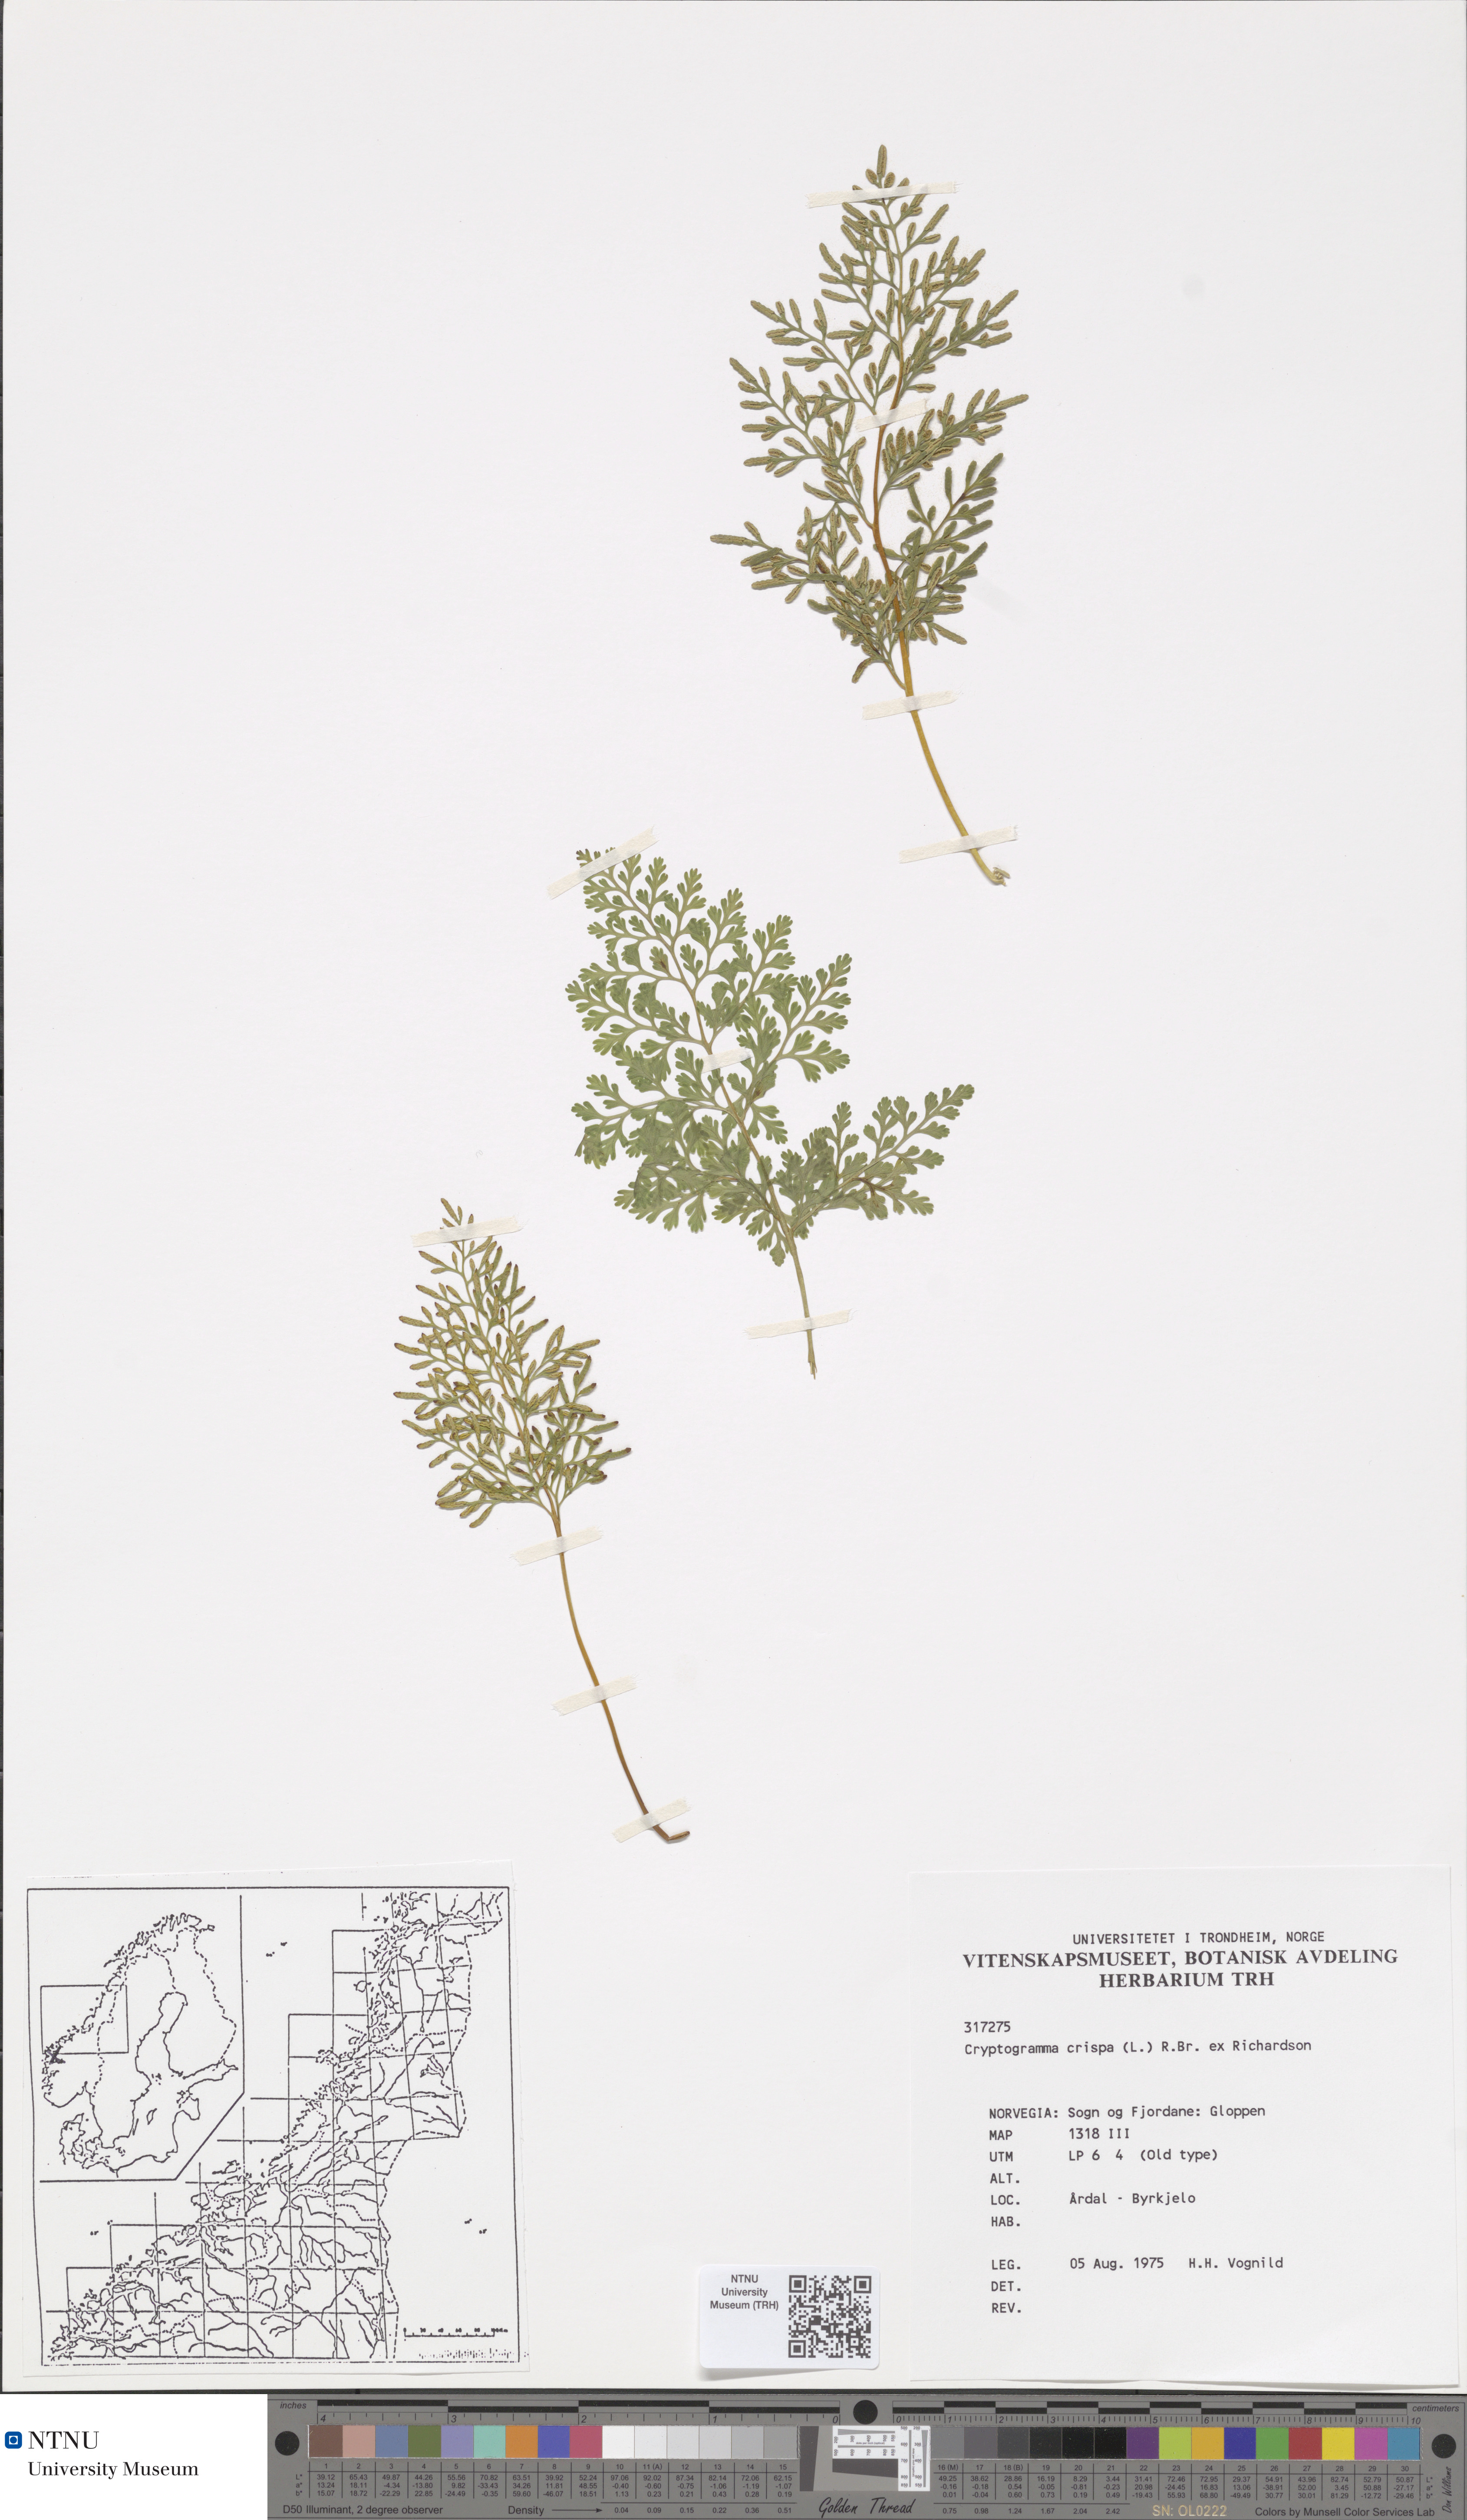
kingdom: Plantae
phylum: Tracheophyta
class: Polypodiopsida
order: Polypodiales
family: Pteridaceae
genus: Cryptogramma
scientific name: Cryptogramma crispa
